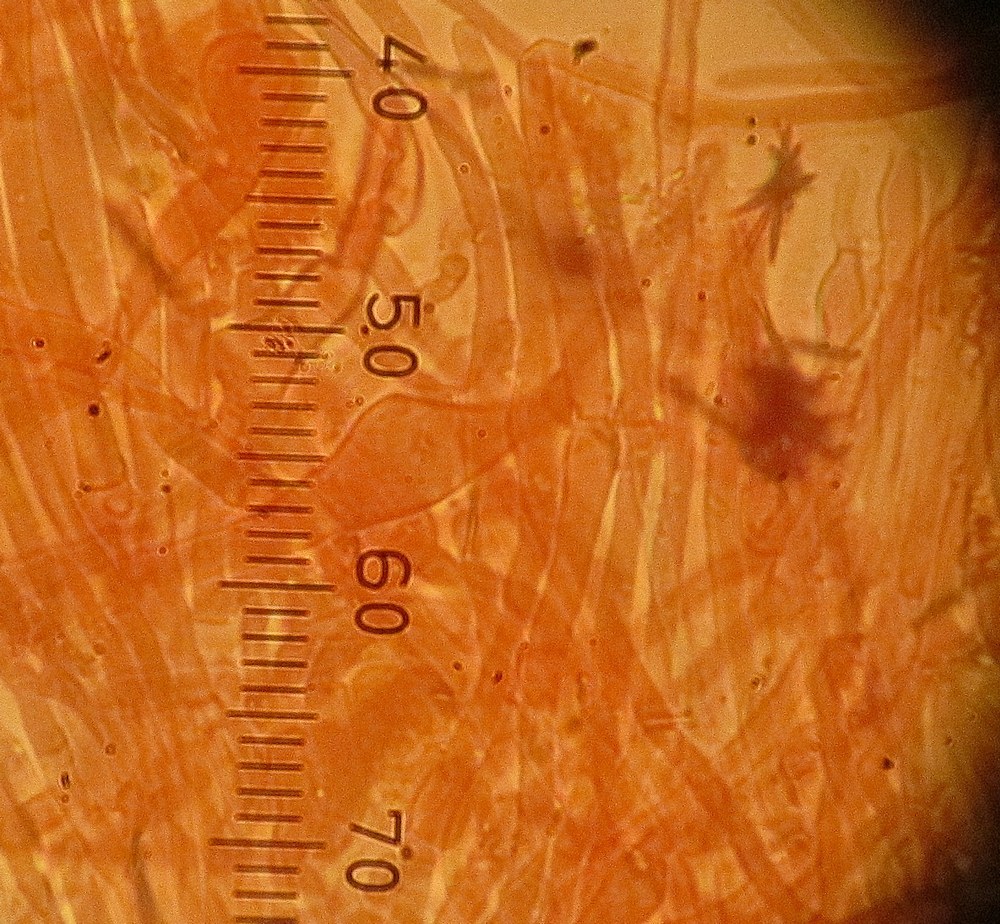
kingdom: Fungi
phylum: Basidiomycota
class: Agaricomycetes
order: Trechisporales
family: Sistotremataceae
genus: Trechispora
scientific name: Trechispora hymenocystis
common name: poret vathinde
